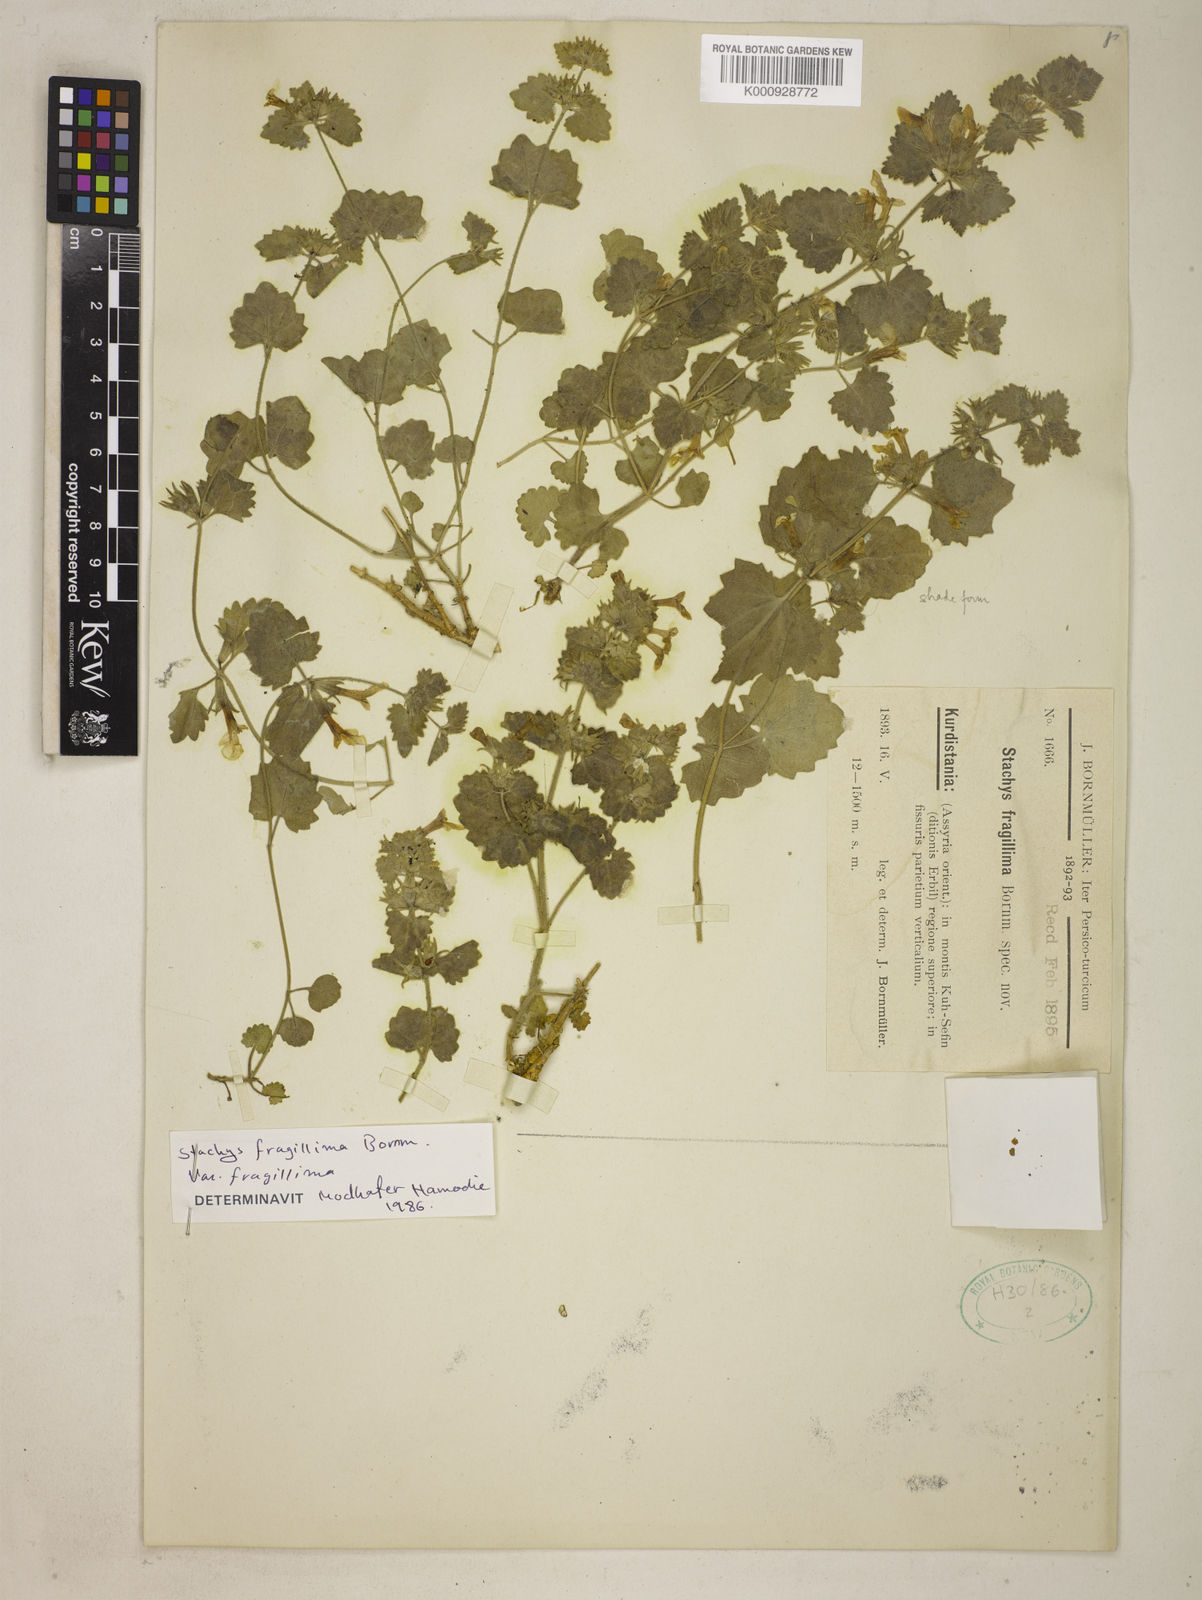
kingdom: Plantae
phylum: Tracheophyta
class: Magnoliopsida
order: Lamiales
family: Lamiaceae
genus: Stachys
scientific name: Stachys fragillima
